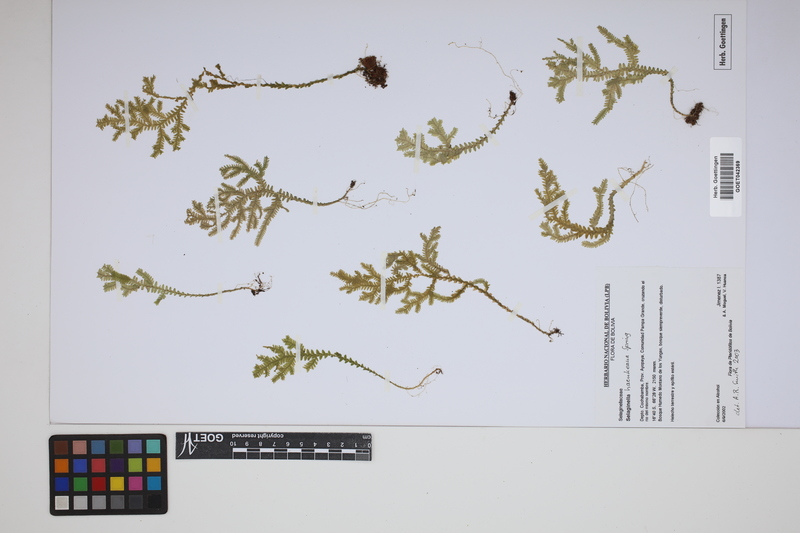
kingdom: Plantae
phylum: Tracheophyta
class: Lycopodiopsida
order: Selaginellales
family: Selaginellaceae
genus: Selaginella
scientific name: Selaginella haenkeana
